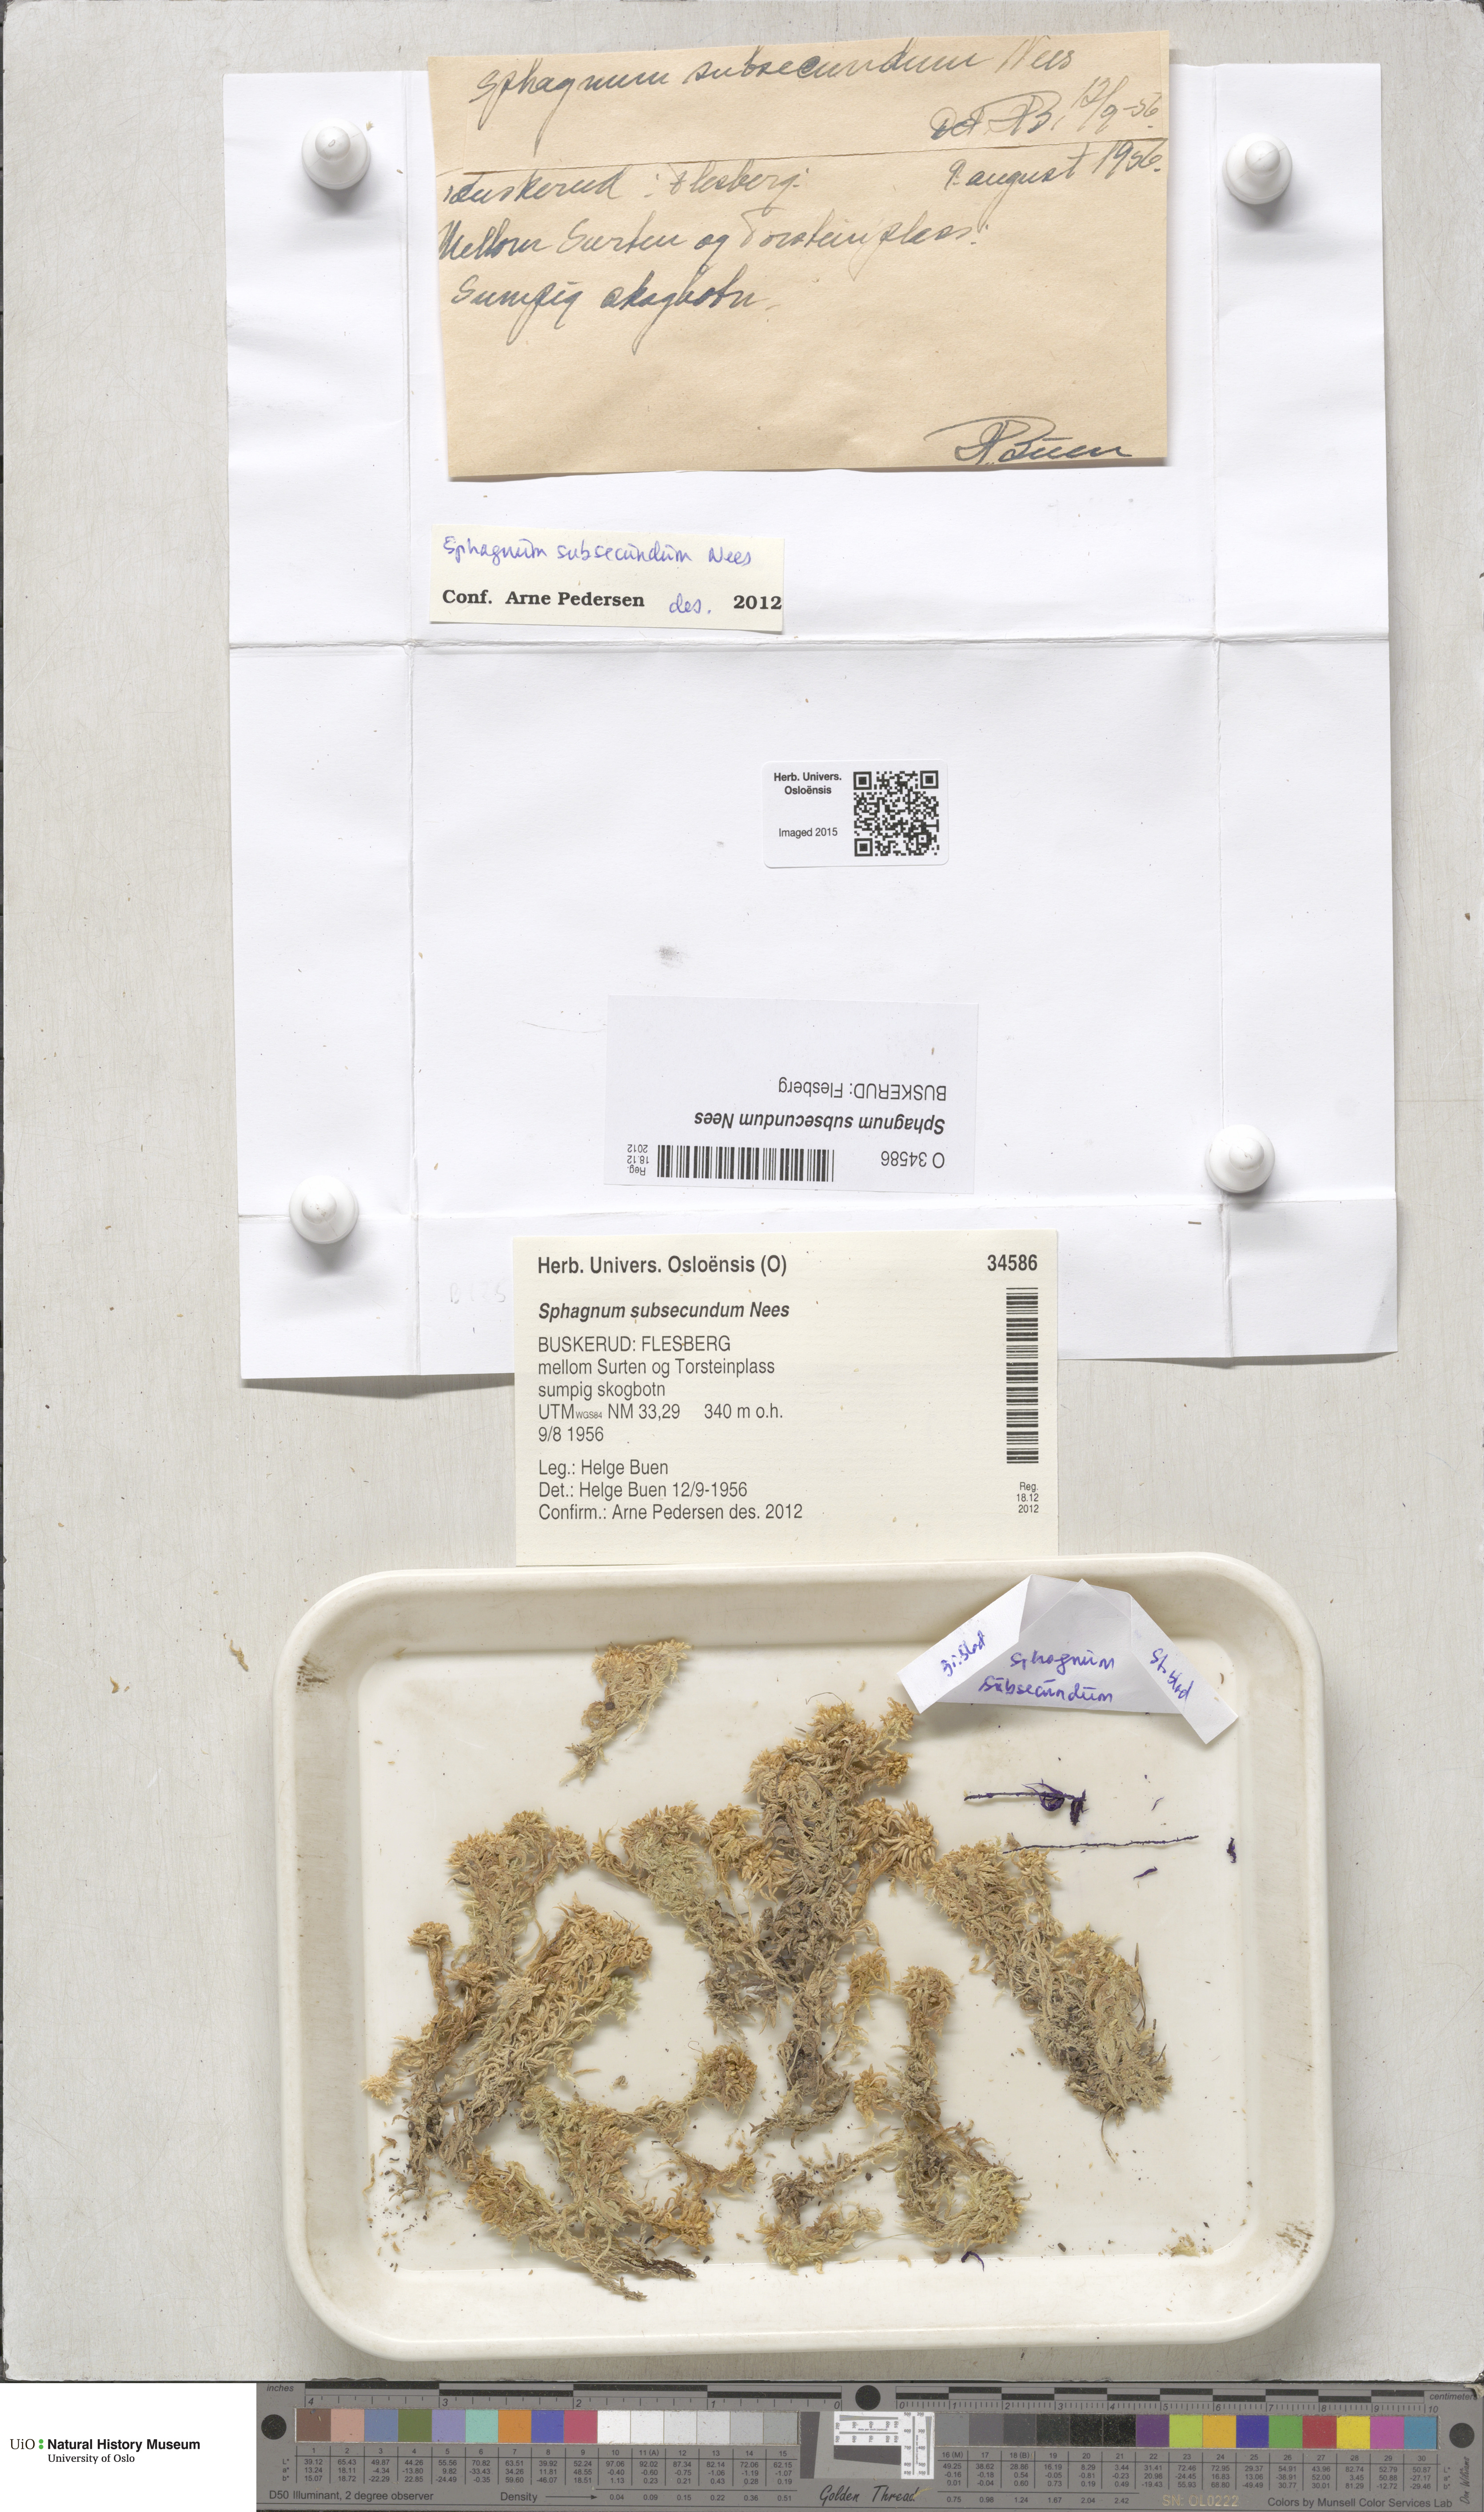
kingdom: Plantae
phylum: Bryophyta
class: Sphagnopsida
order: Sphagnales
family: Sphagnaceae
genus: Sphagnum
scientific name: Sphagnum subsecundum
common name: Orange peat moss
